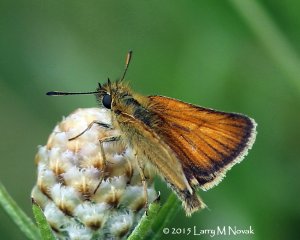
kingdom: Animalia
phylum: Arthropoda
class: Insecta
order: Lepidoptera
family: Hesperiidae
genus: Thymelicus
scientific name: Thymelicus lineola
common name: European Skipper
